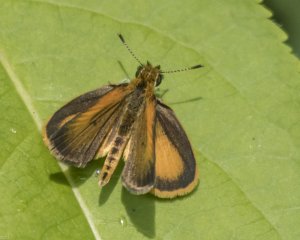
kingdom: Animalia
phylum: Arthropoda
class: Insecta
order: Lepidoptera
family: Hesperiidae
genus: Polites
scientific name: Polites coras
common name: Peck's Skipper
